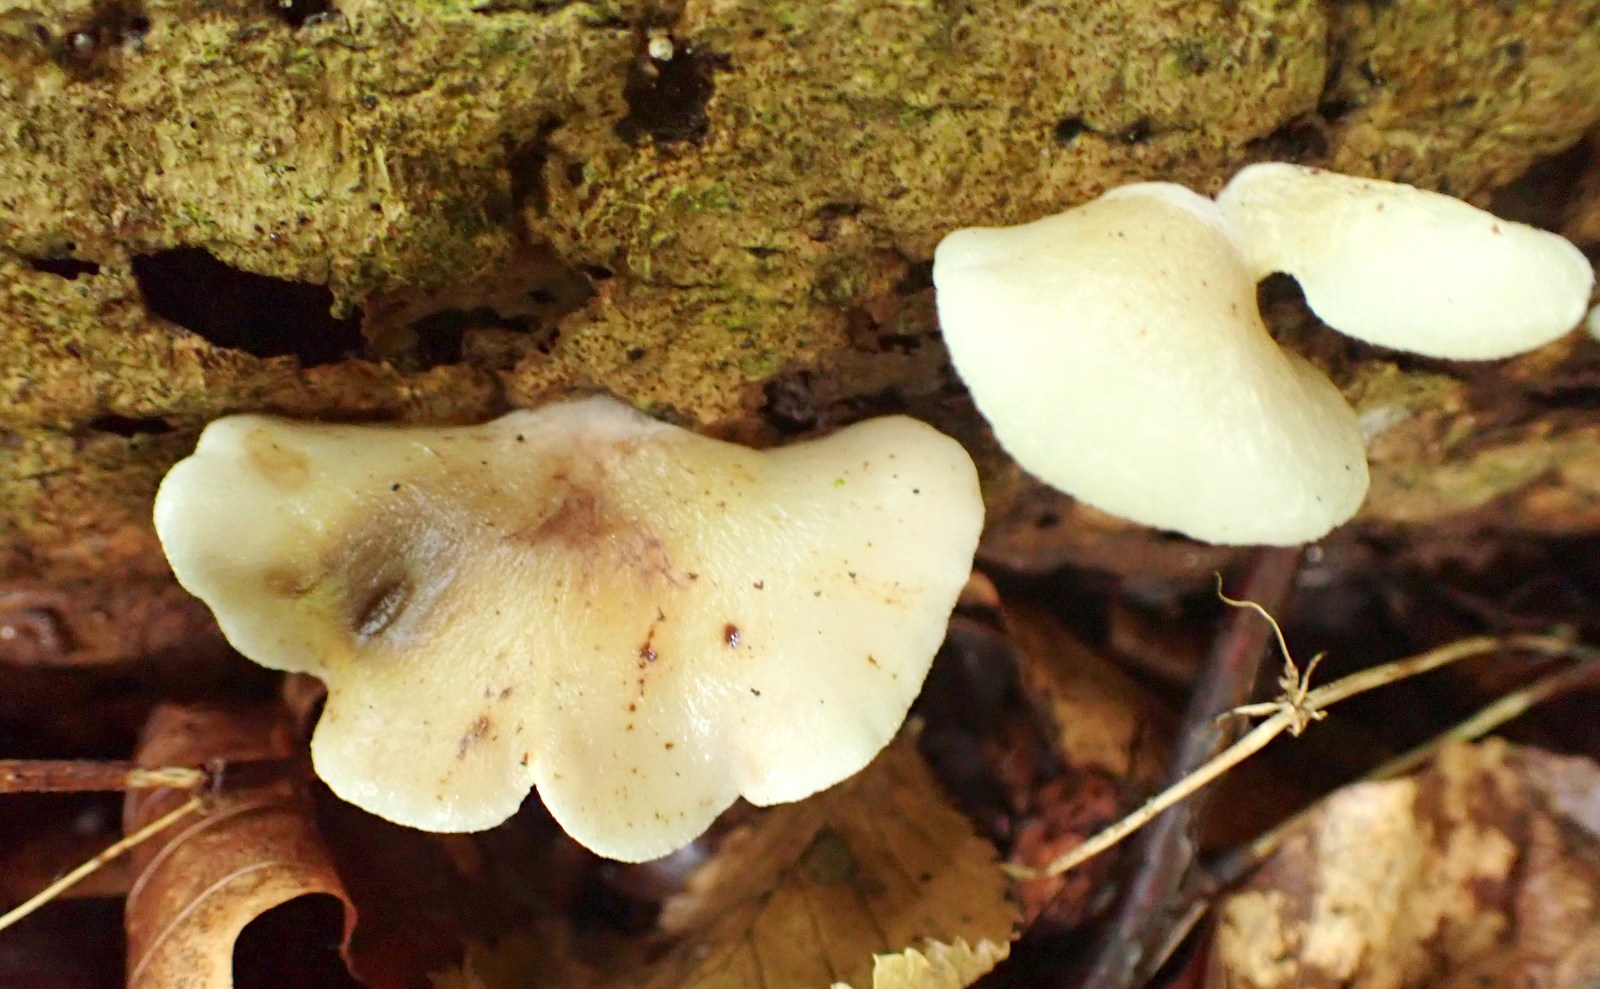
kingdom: Fungi
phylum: Basidiomycota
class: Agaricomycetes
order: Agaricales
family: Crepidotaceae
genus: Crepidotus
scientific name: Crepidotus mollis
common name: blød muslingesvamp
